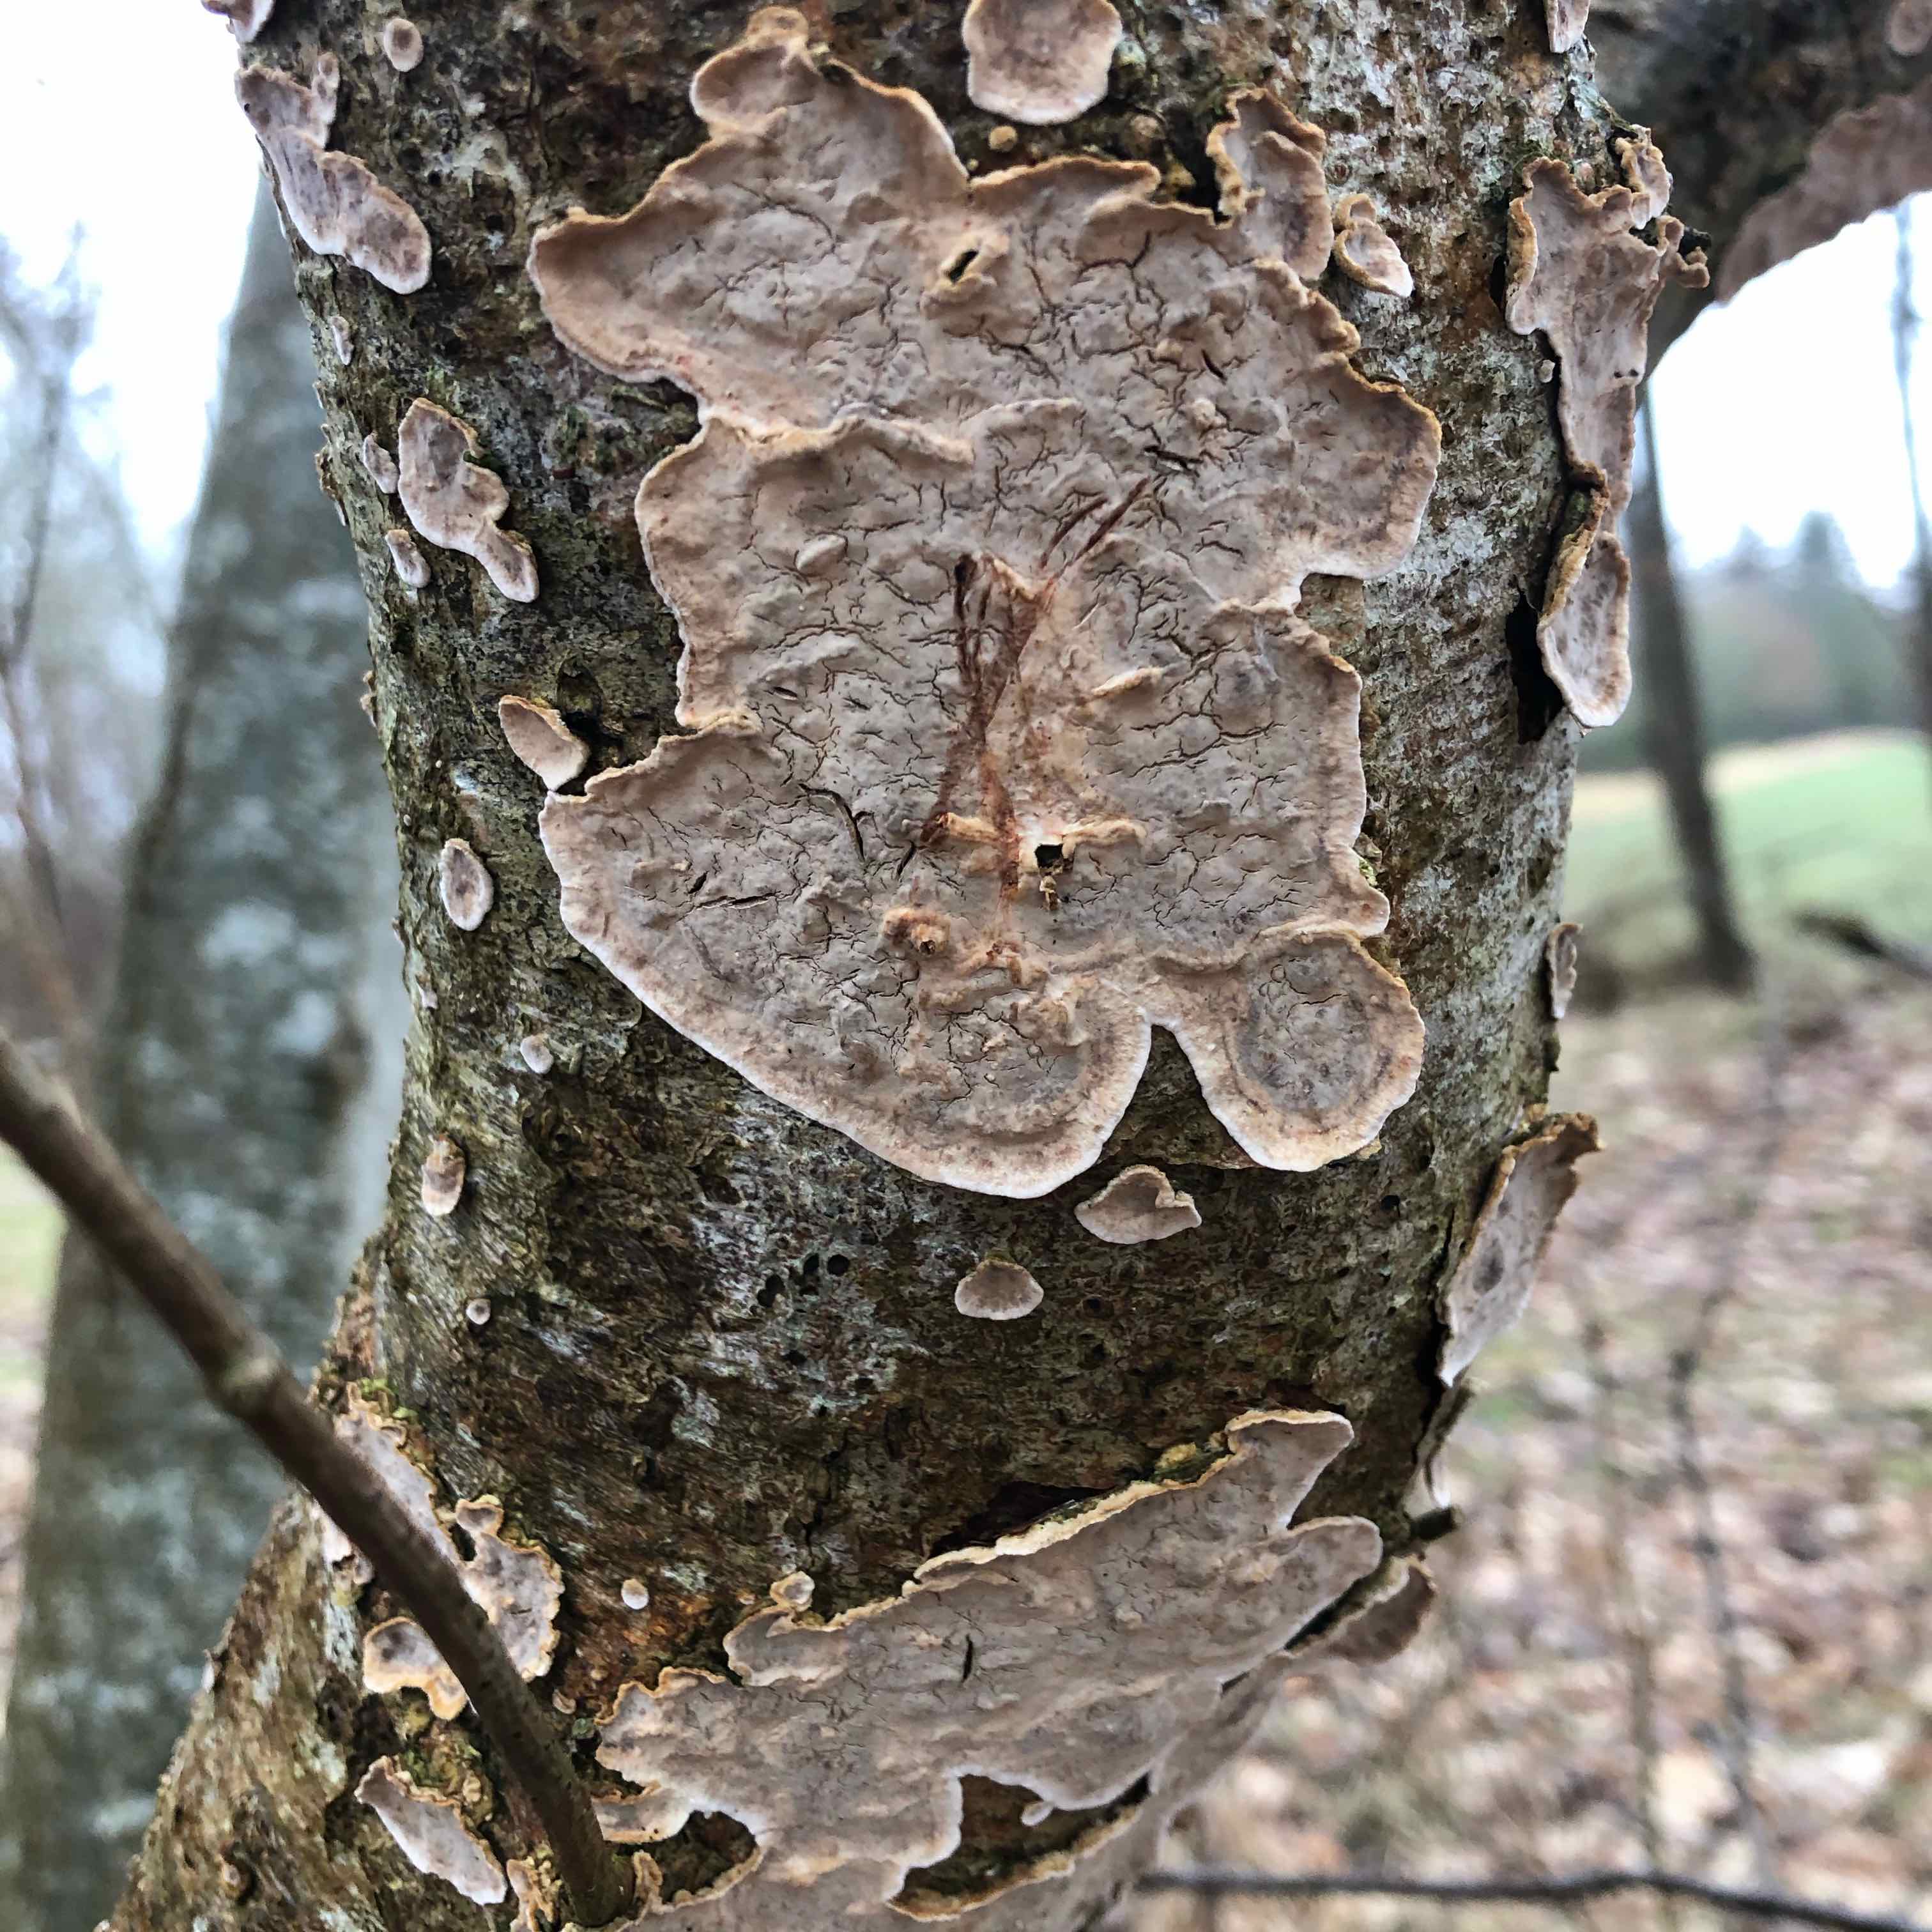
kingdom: Fungi
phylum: Basidiomycota
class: Agaricomycetes
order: Russulales
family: Stereaceae
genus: Stereum
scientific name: Stereum rugosum
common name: rynket lædersvamp
